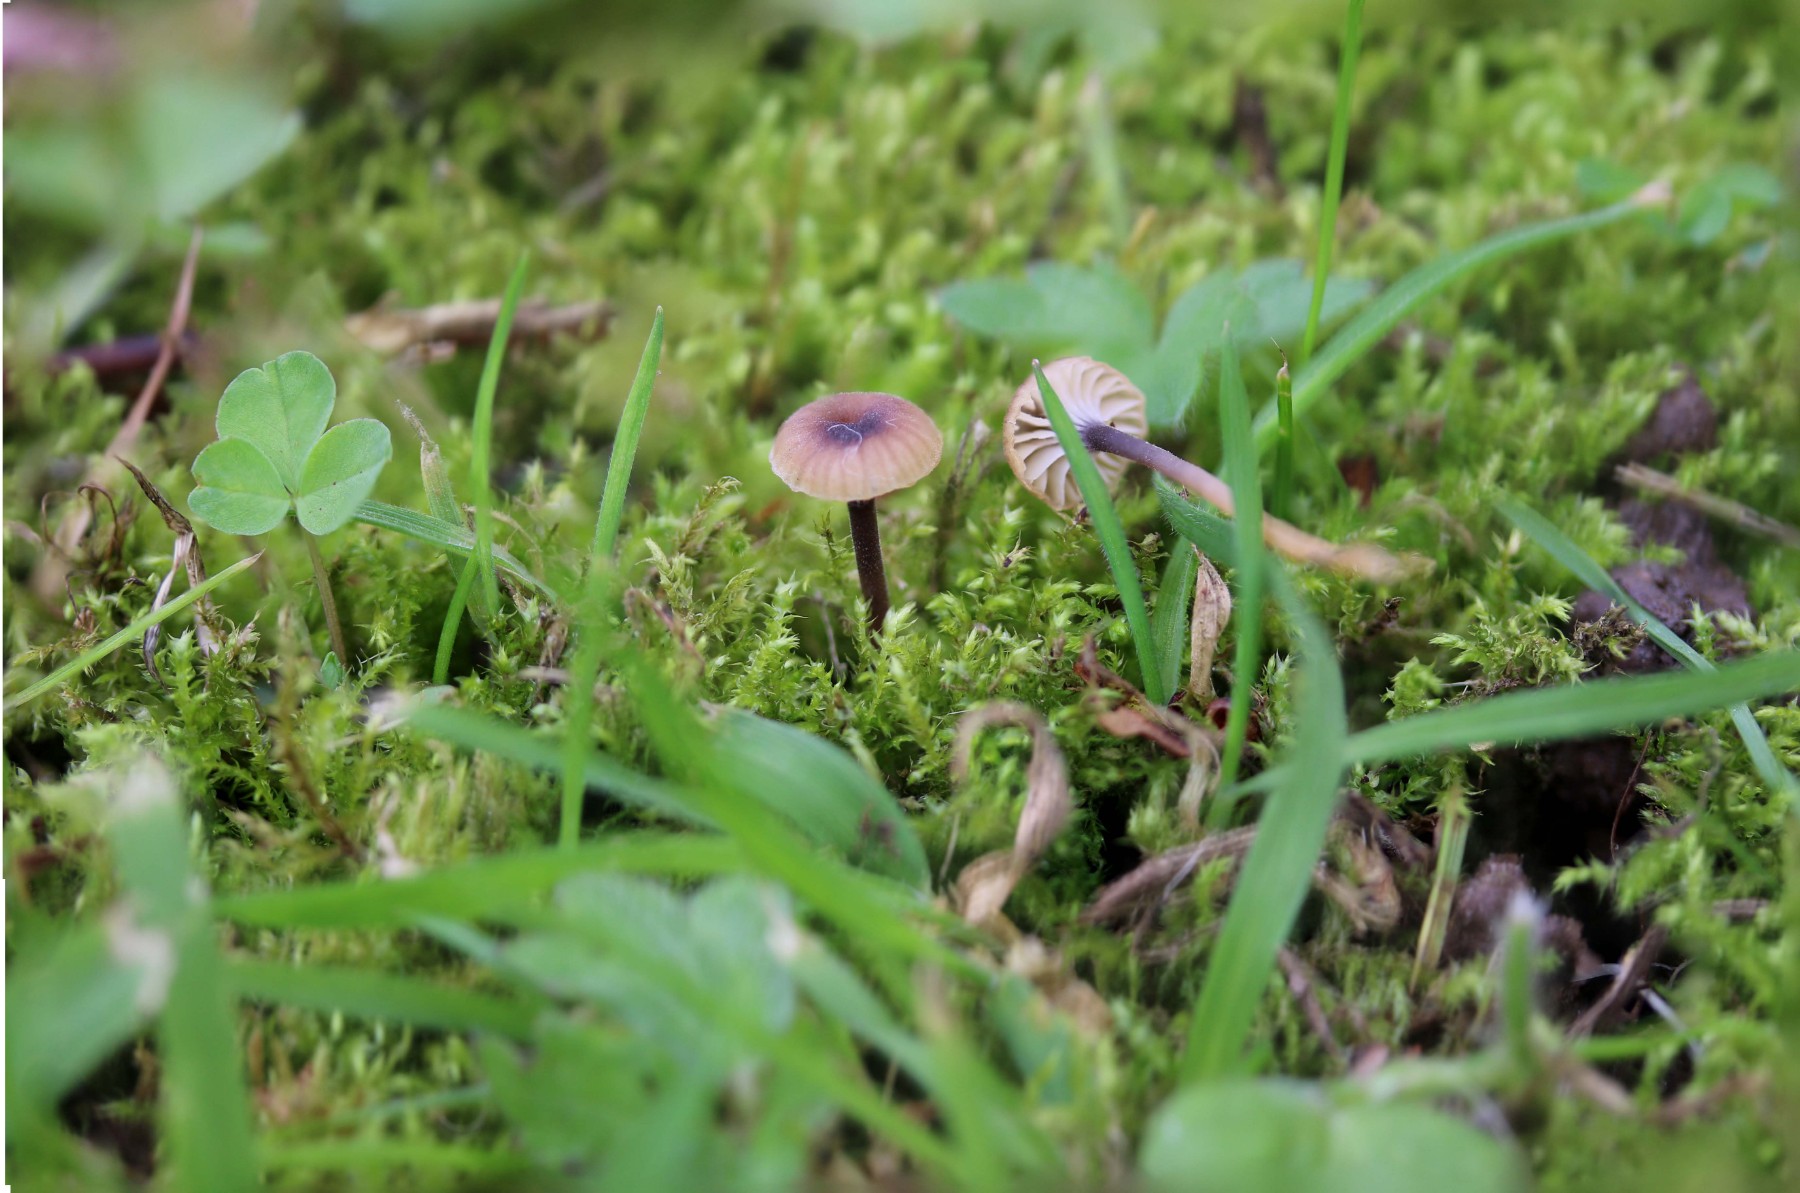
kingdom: Fungi
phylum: Basidiomycota
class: Agaricomycetes
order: Hymenochaetales
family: Rickenellaceae
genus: Rickenella
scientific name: Rickenella swartzii
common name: finstokket mosnavlehat
